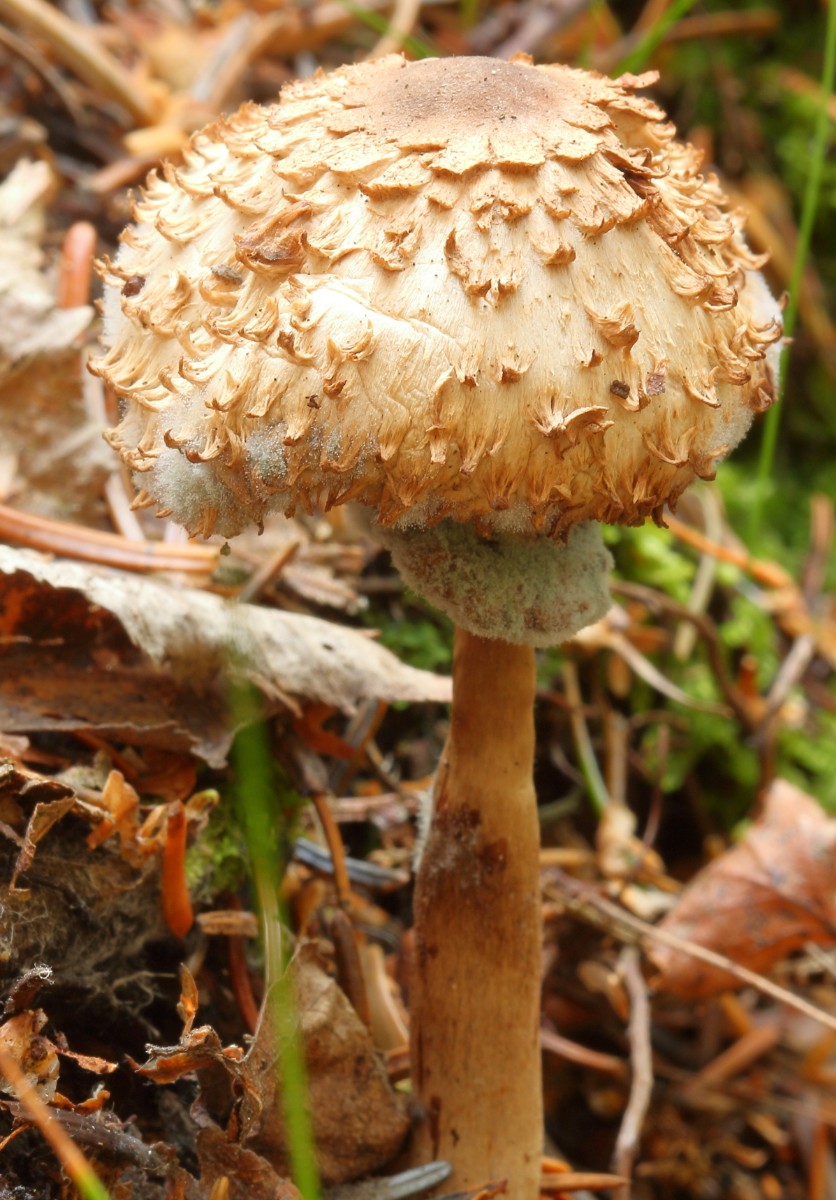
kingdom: Fungi
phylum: Basidiomycota
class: Agaricomycetes
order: Agaricales
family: Agaricaceae
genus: Chlorophyllum
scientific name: Chlorophyllum olivieri
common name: almindelig rabarberhat
